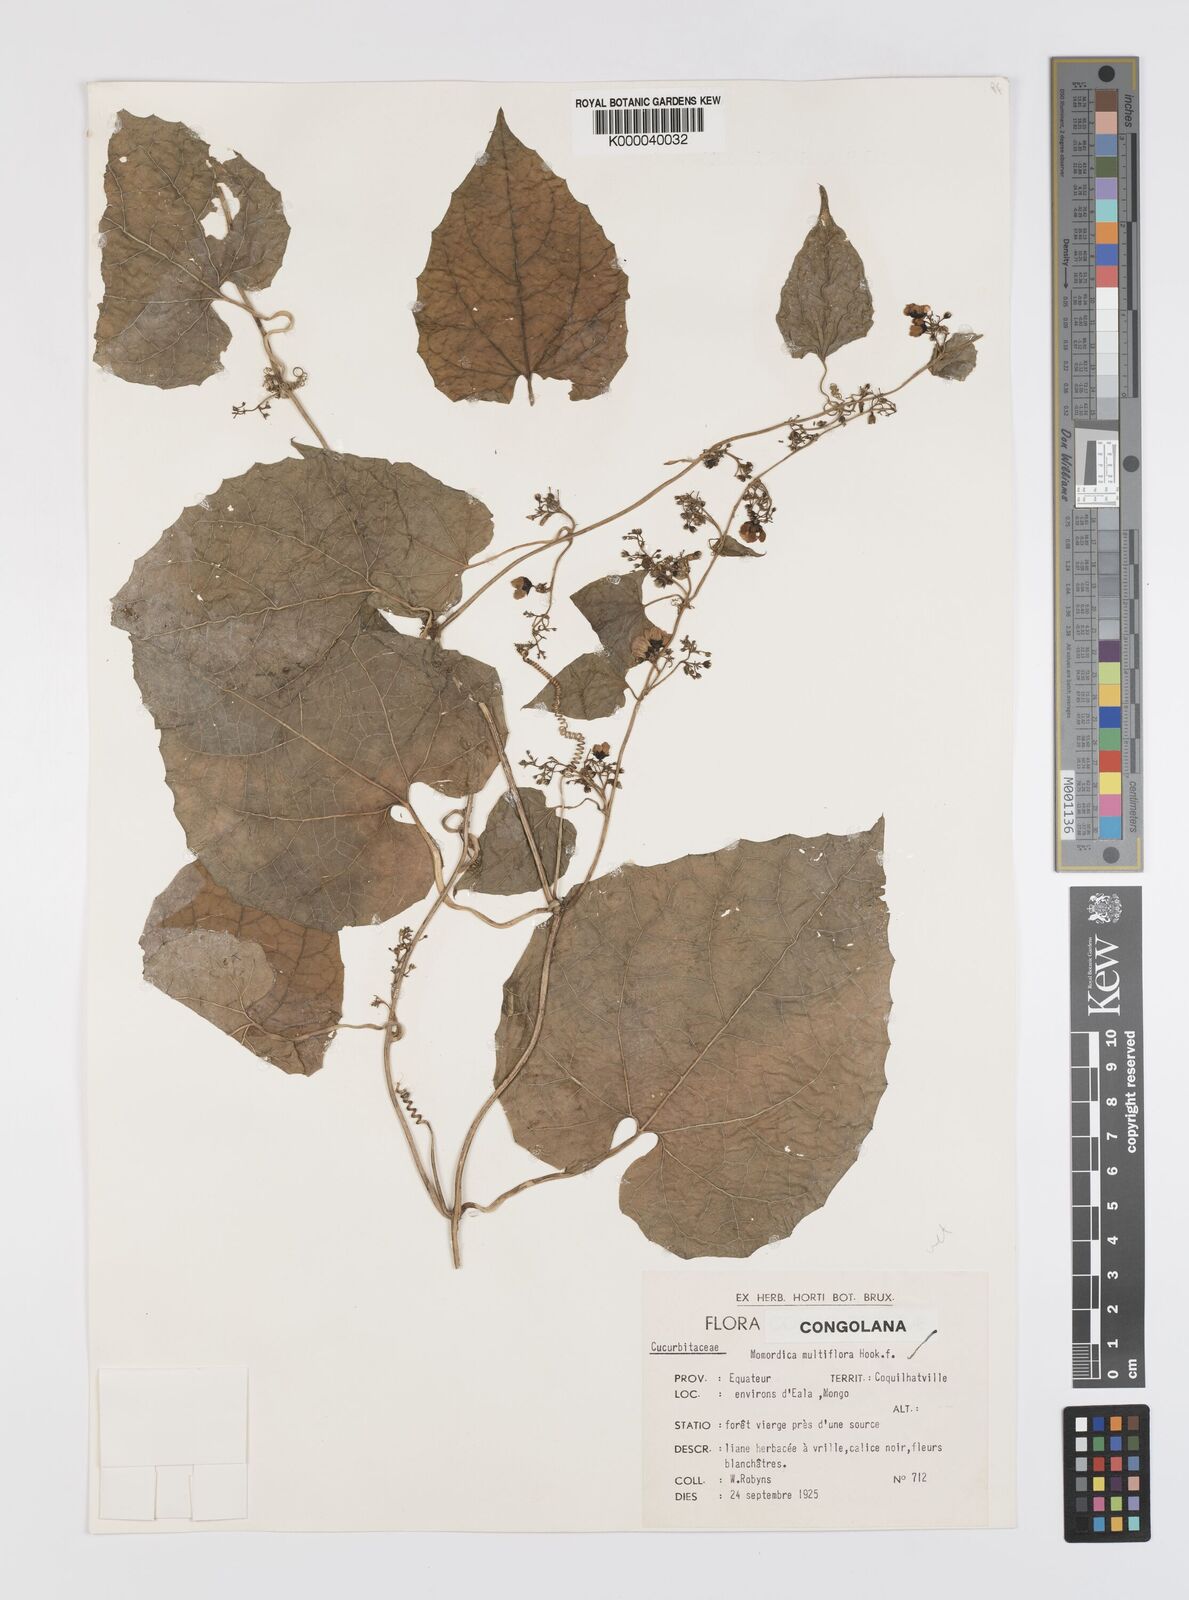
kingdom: Plantae
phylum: Tracheophyta
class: Magnoliopsida
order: Cucurbitales
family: Cucurbitaceae
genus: Momordica
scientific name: Momordica multiflora
